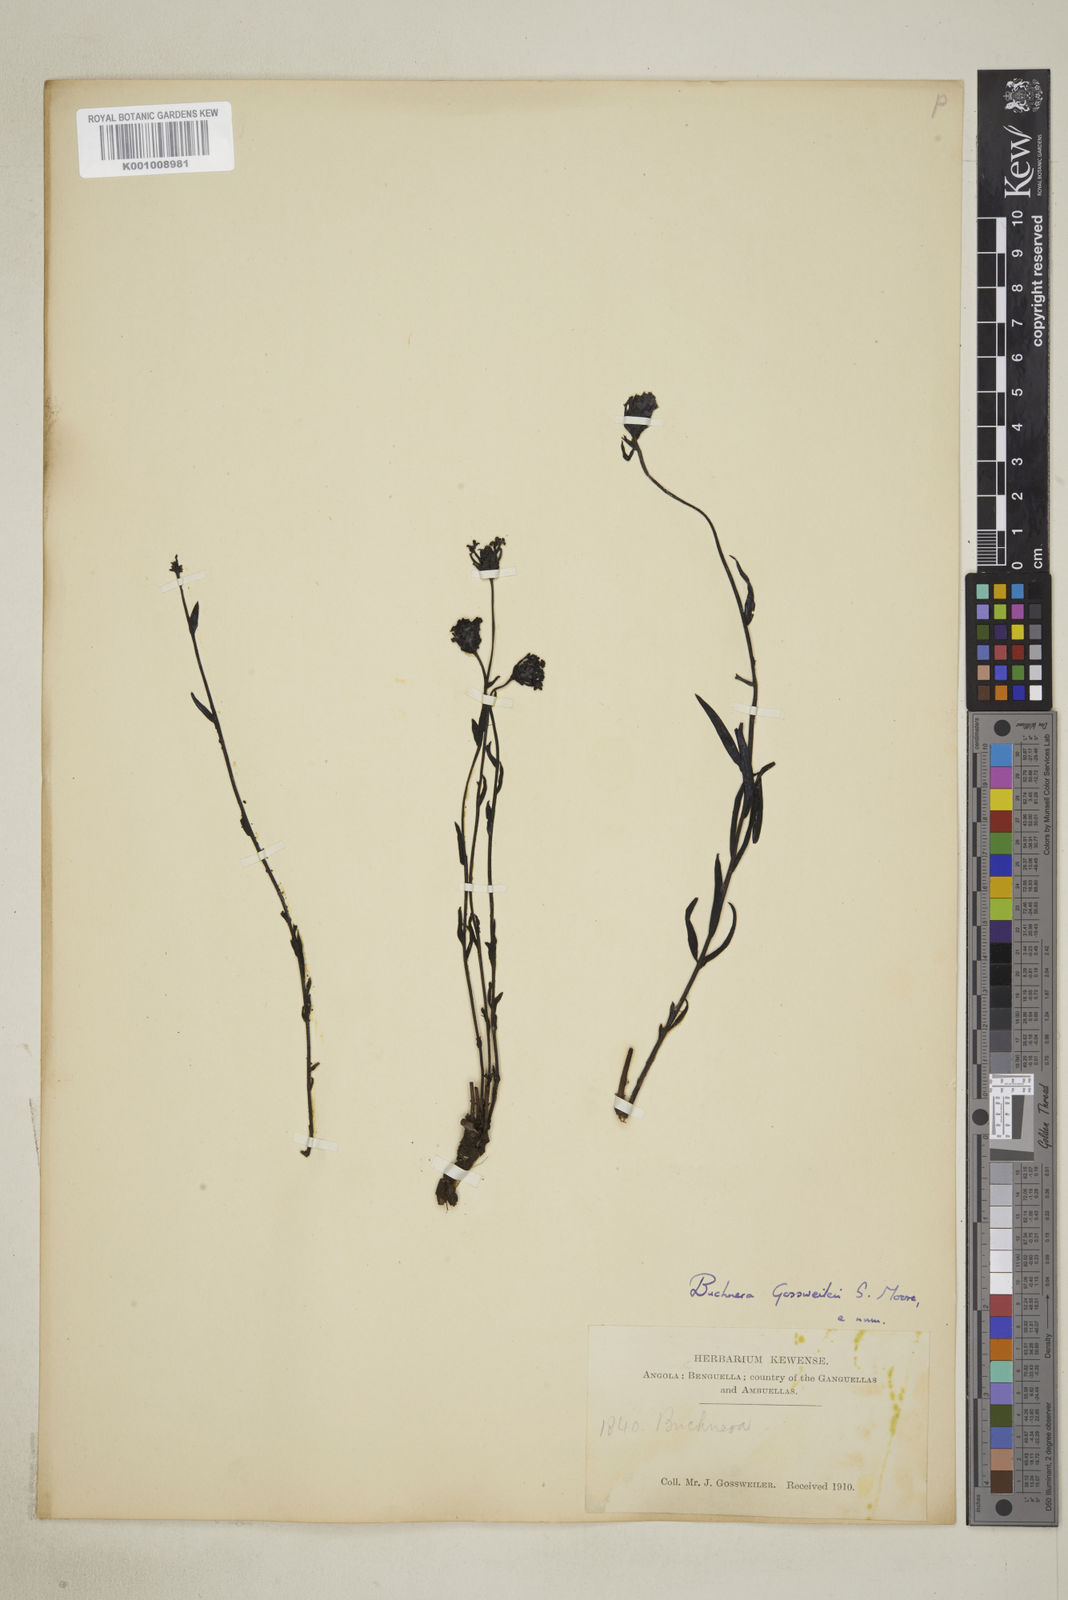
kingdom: Plantae
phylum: Tracheophyta
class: Magnoliopsida
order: Lamiales
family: Orobanchaceae
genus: Buchnera
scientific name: Buchnera gossweileri
